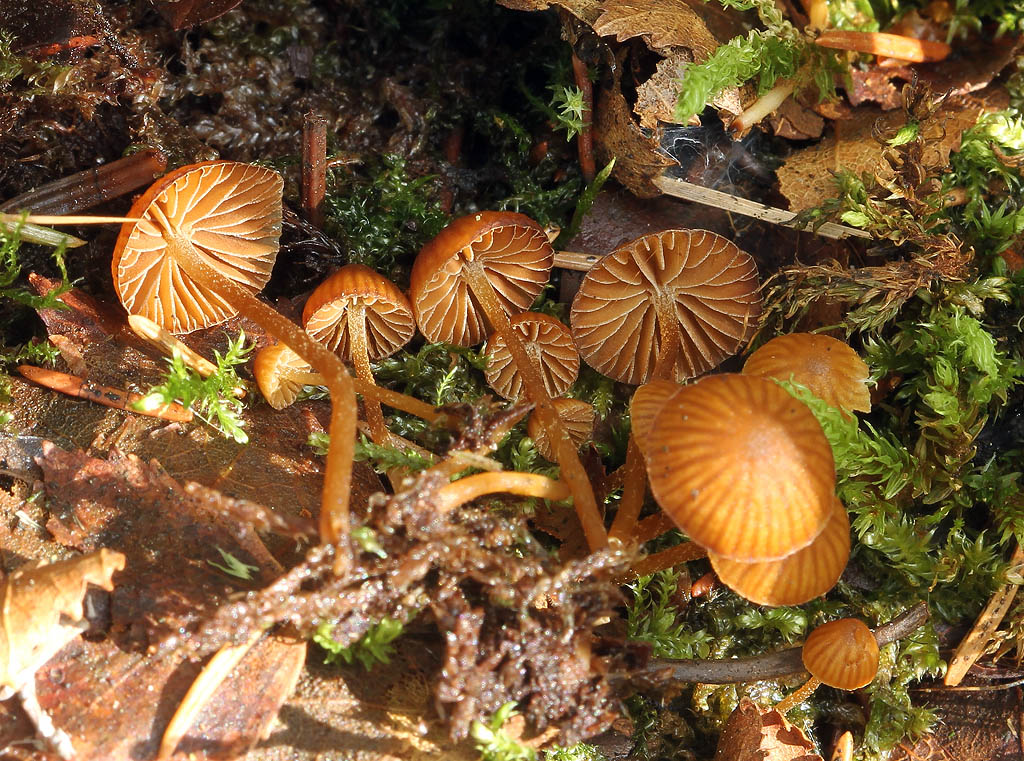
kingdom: Fungi
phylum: Basidiomycota
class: Agaricomycetes
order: Agaricales
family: Hymenogastraceae
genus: Galerina
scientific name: Galerina hypnorum
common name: mos-hjelmhat
